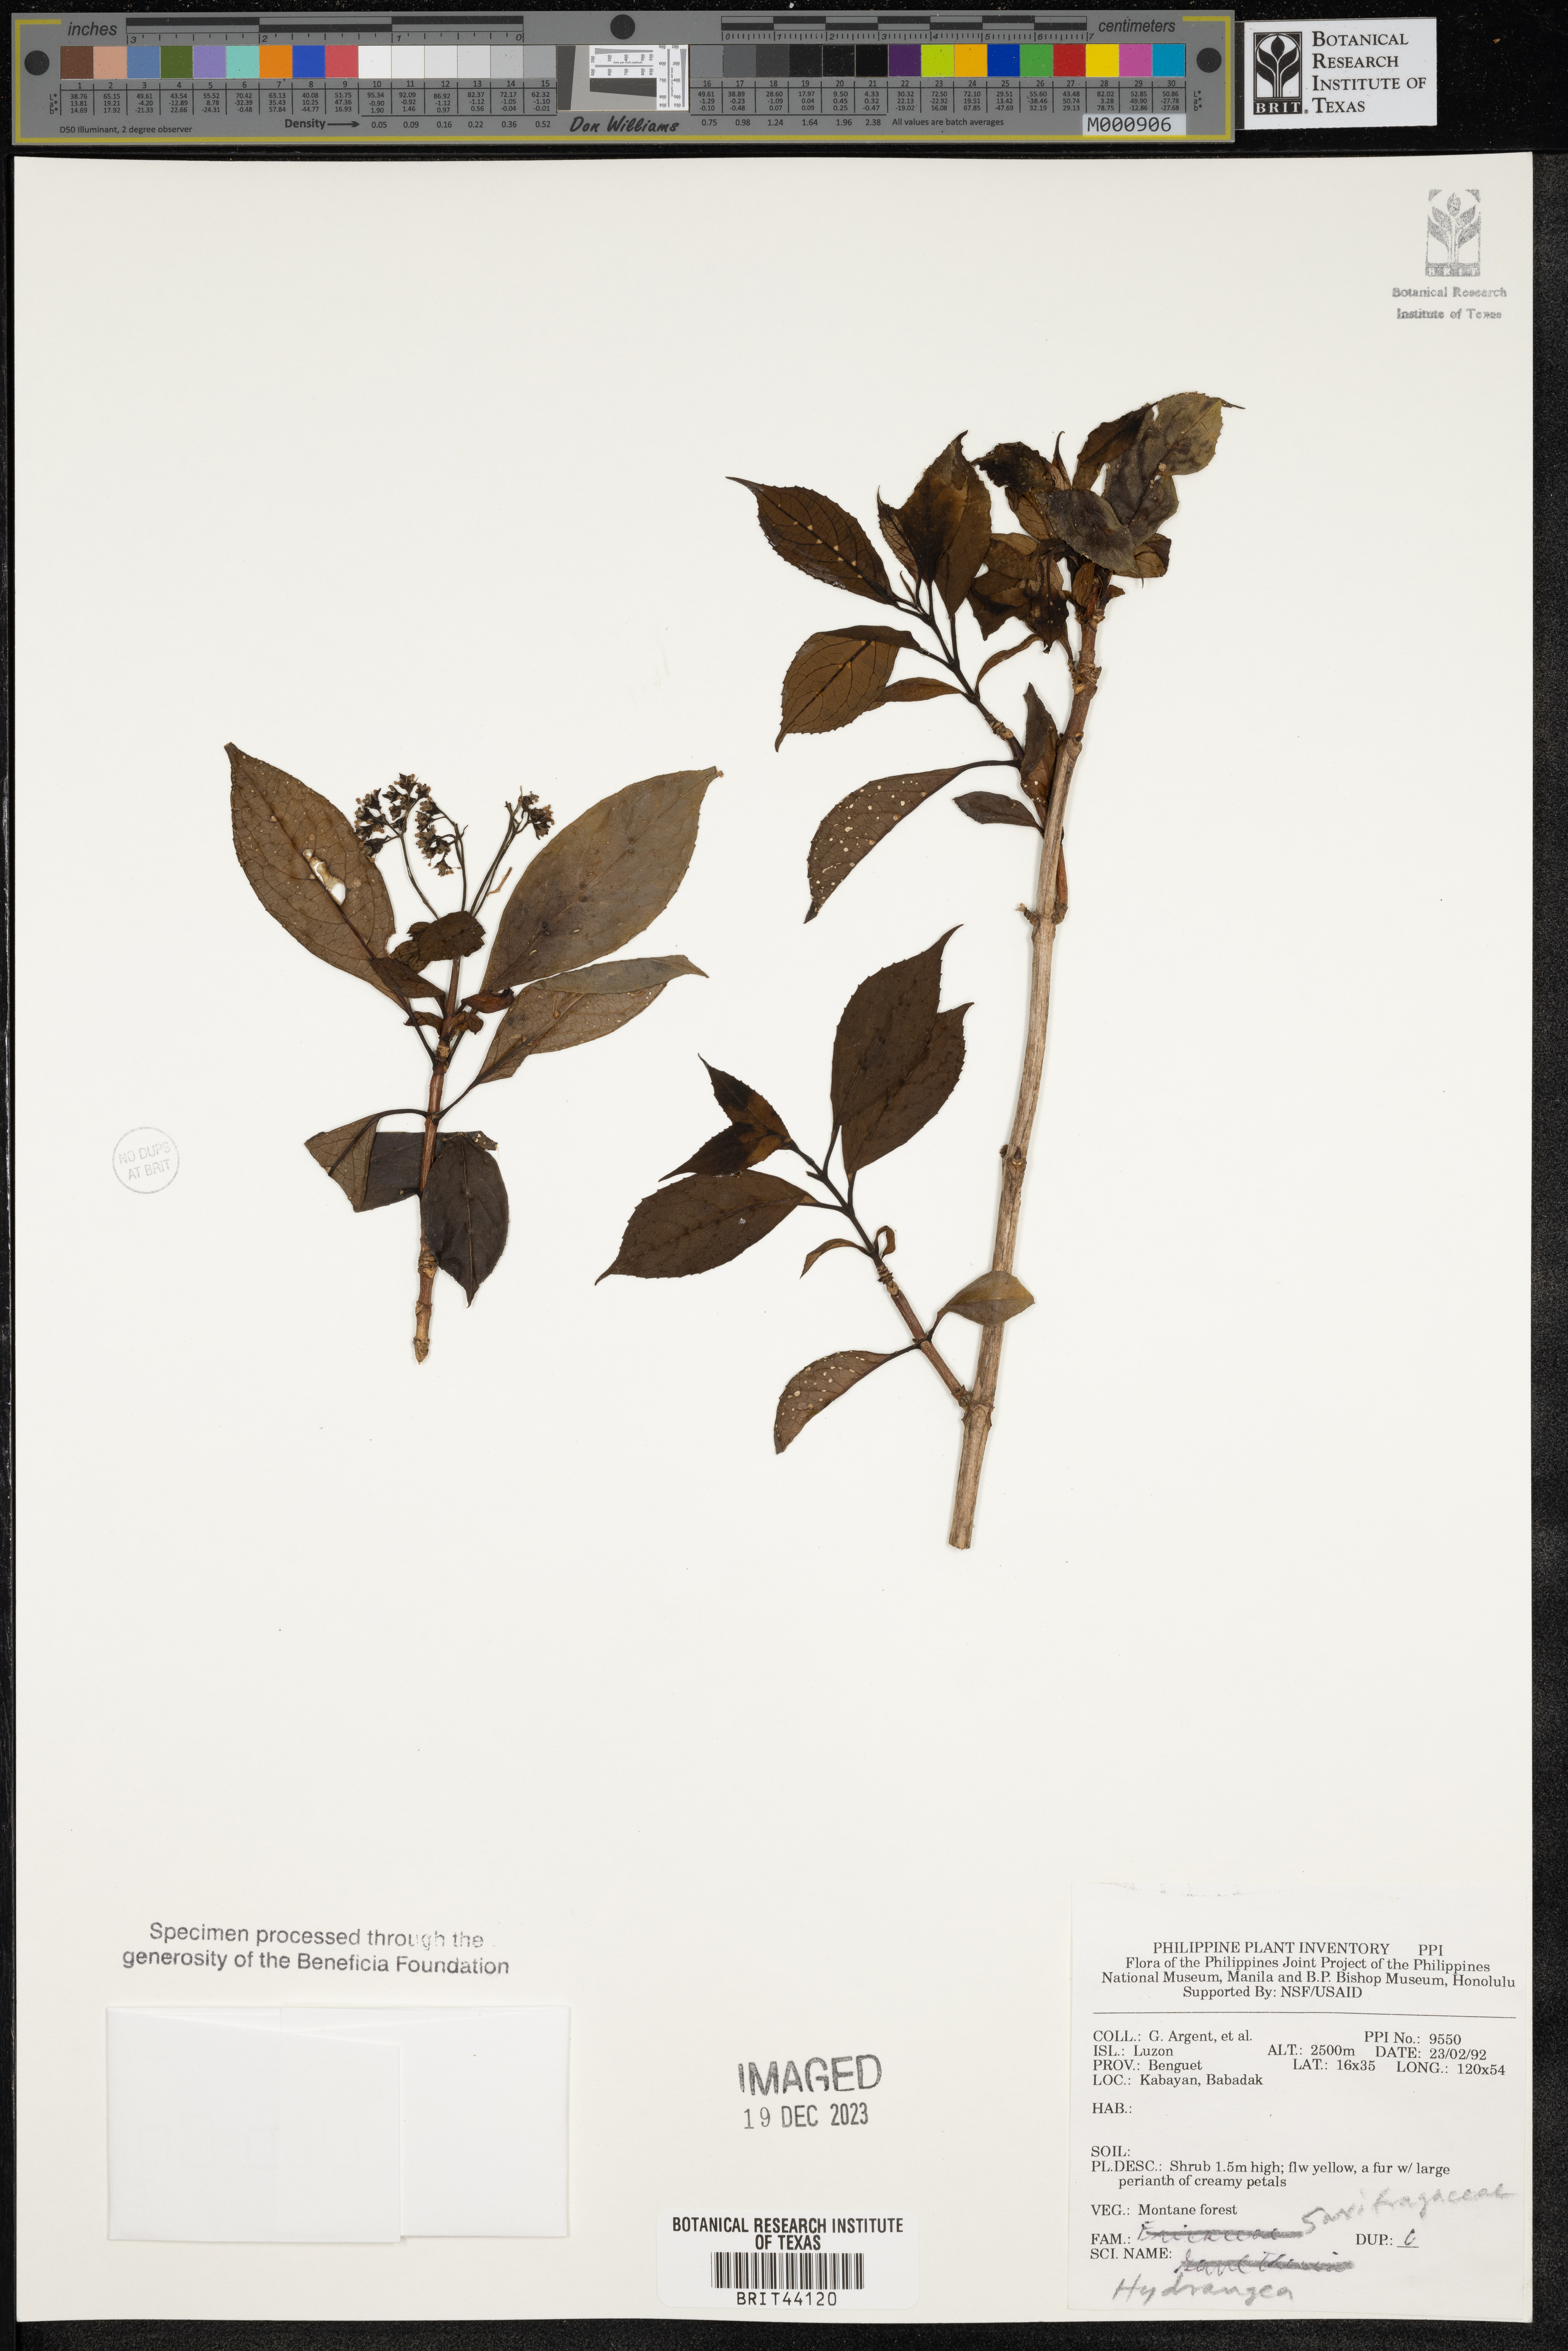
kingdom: Plantae
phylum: Tracheophyta
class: Magnoliopsida
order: Cornales
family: Hydrangeaceae
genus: Hydrangea
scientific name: Hydrangea
